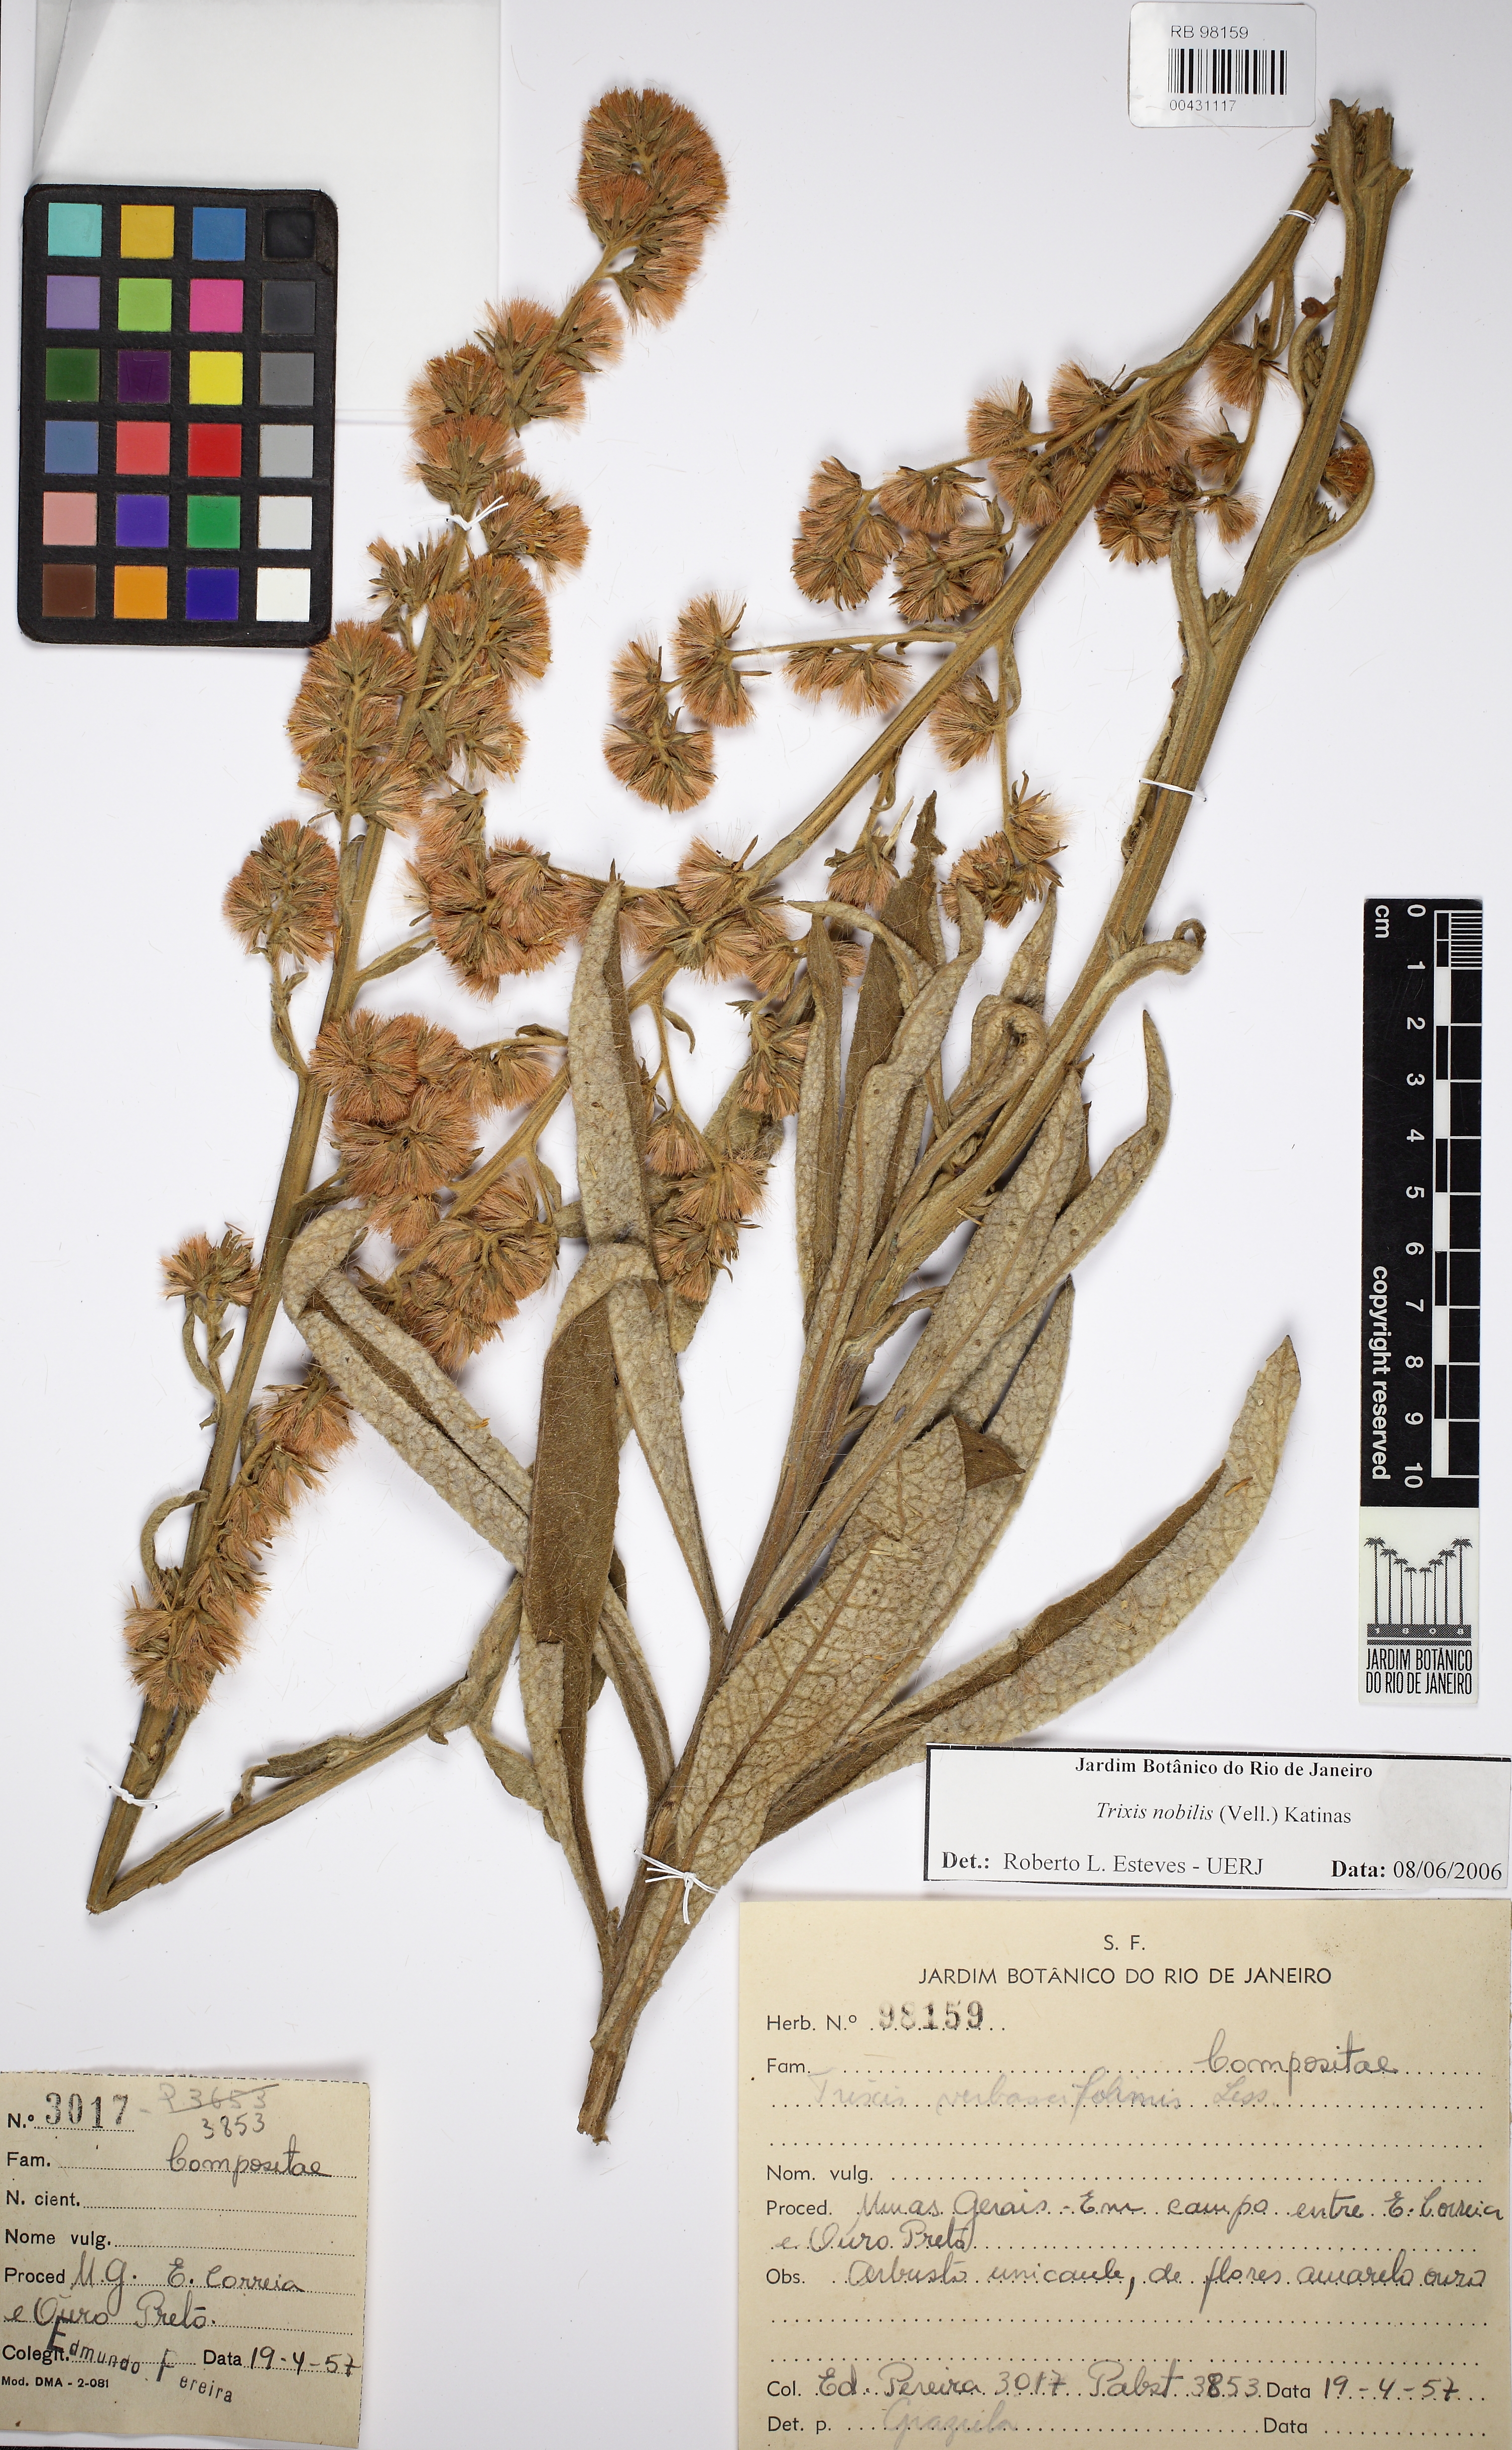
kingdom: Plantae
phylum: Tracheophyta
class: Magnoliopsida
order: Asterales
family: Asteraceae
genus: Trixis
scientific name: Trixis nobilis
